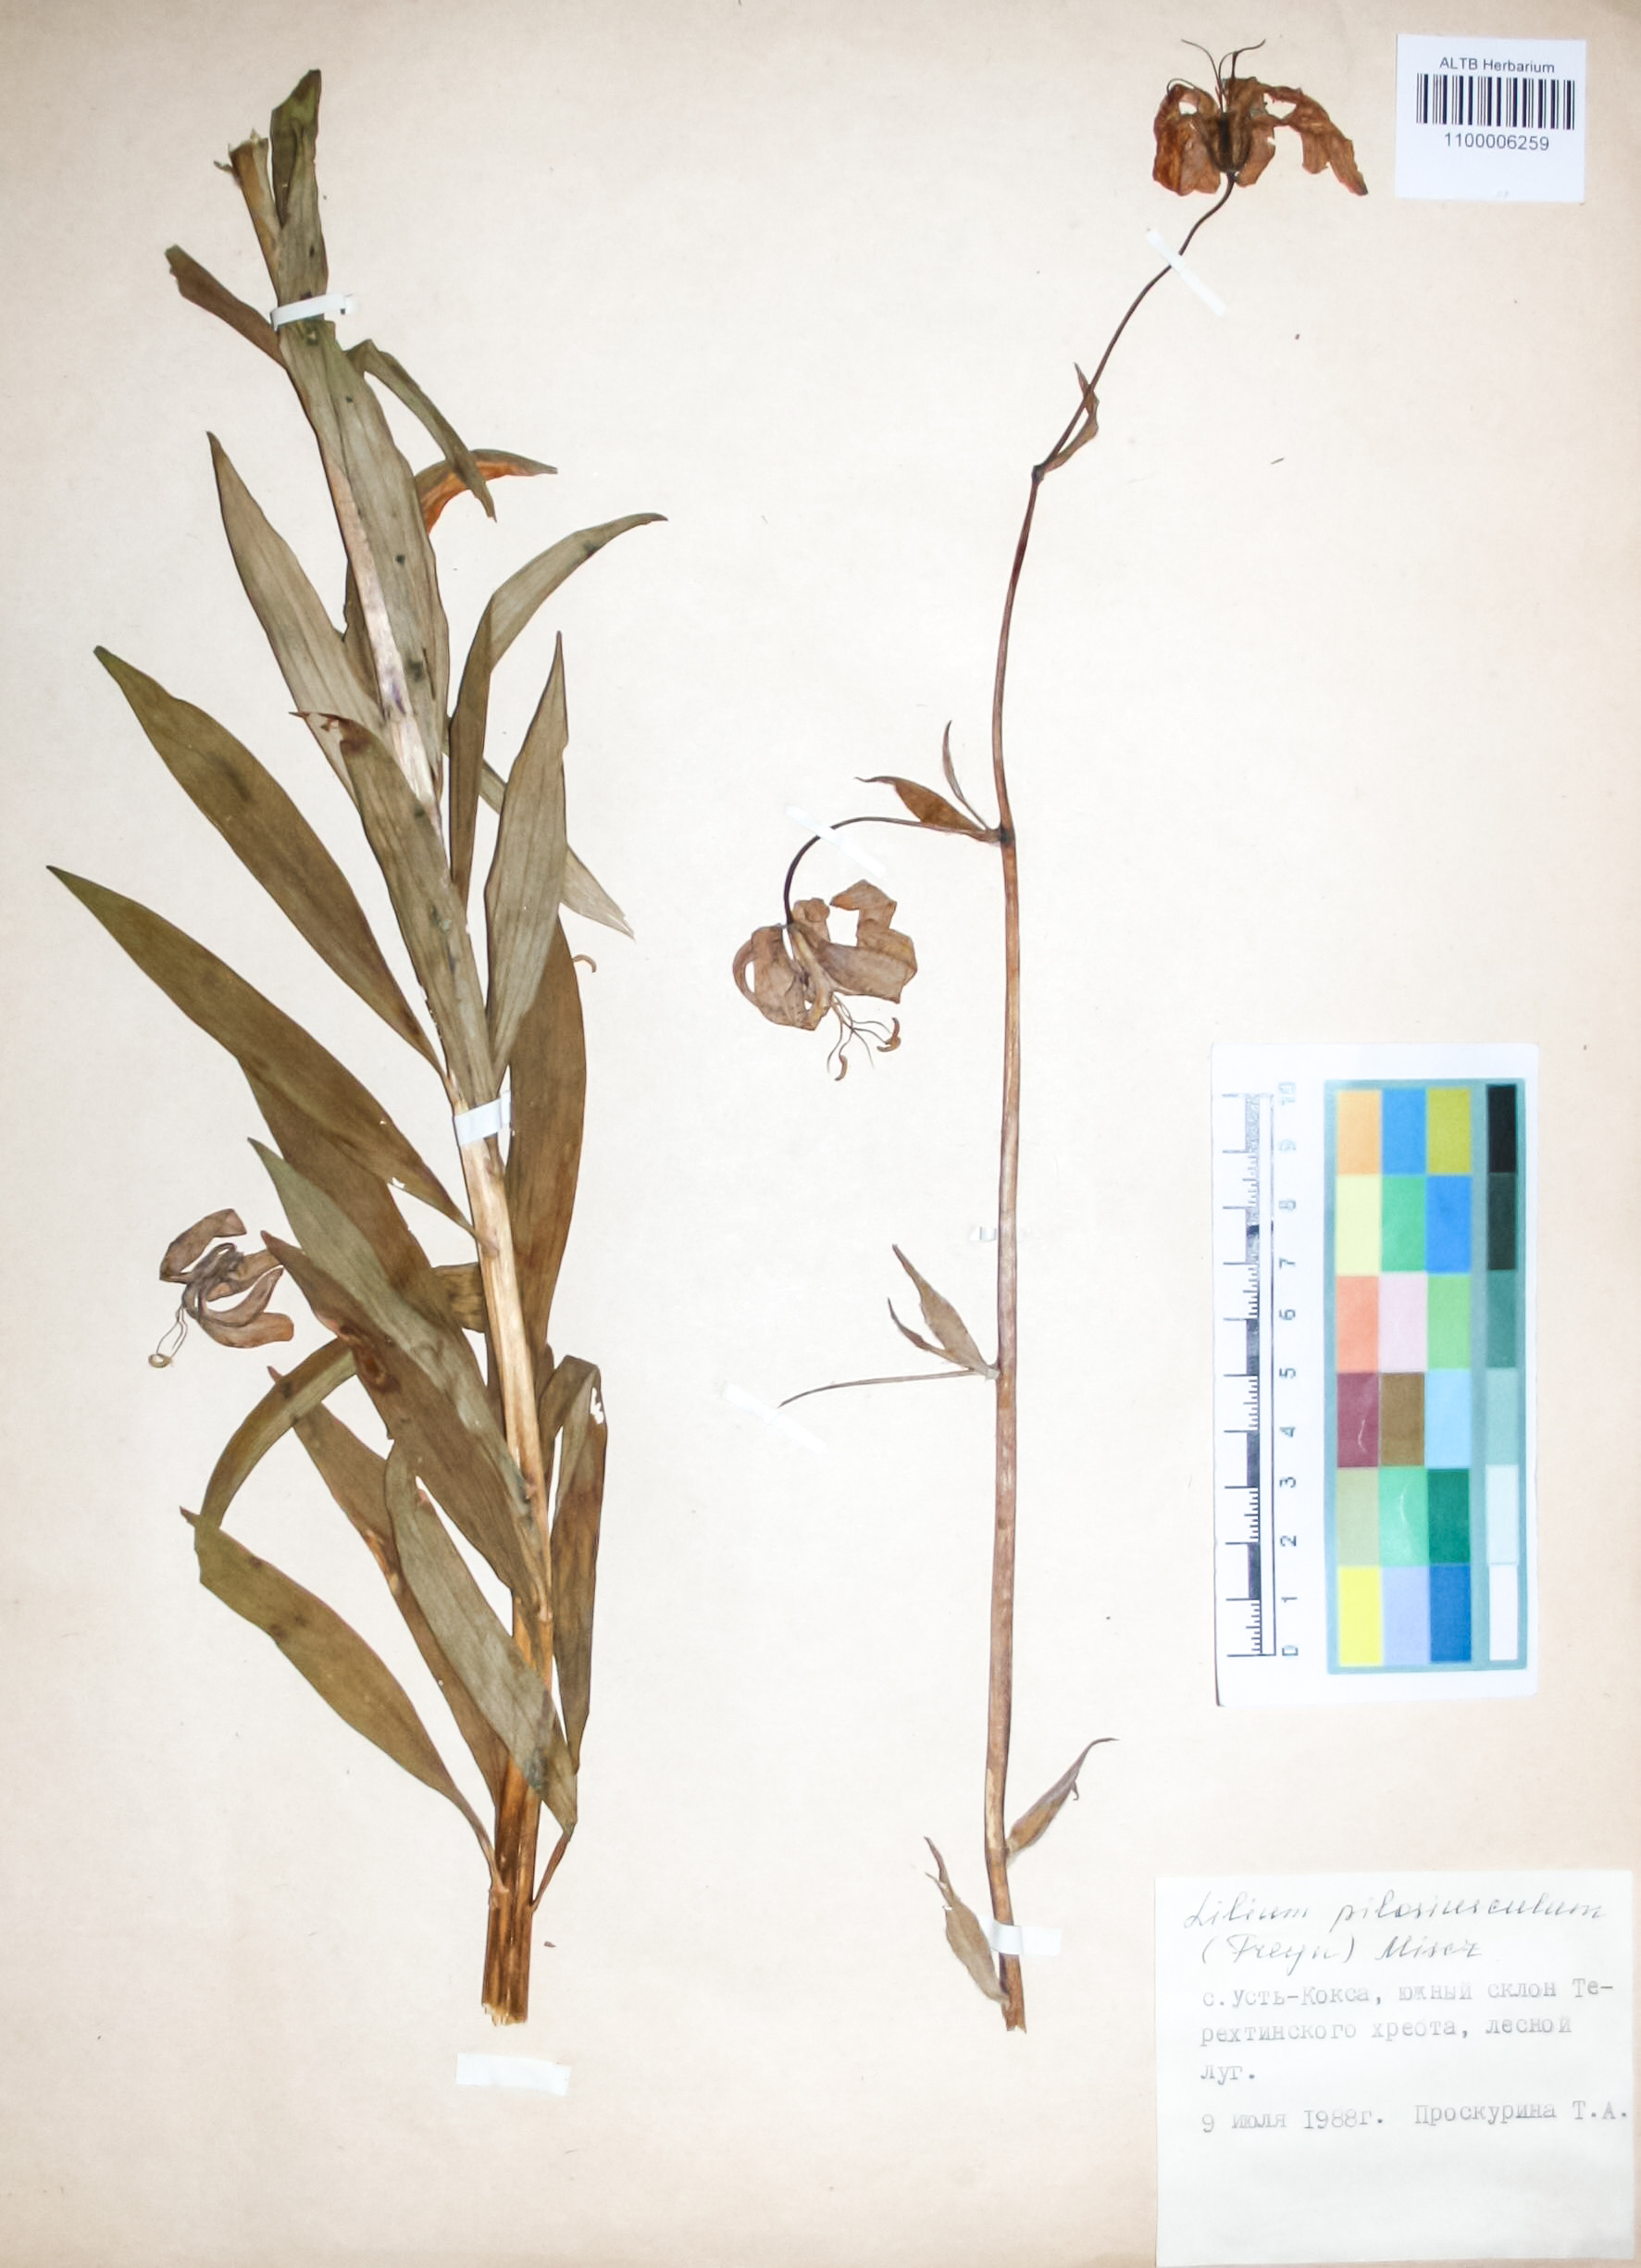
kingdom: Plantae
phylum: Tracheophyta
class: Liliopsida
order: Liliales
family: Liliaceae
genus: Lilium
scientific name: Lilium martagon
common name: Martagon lily
